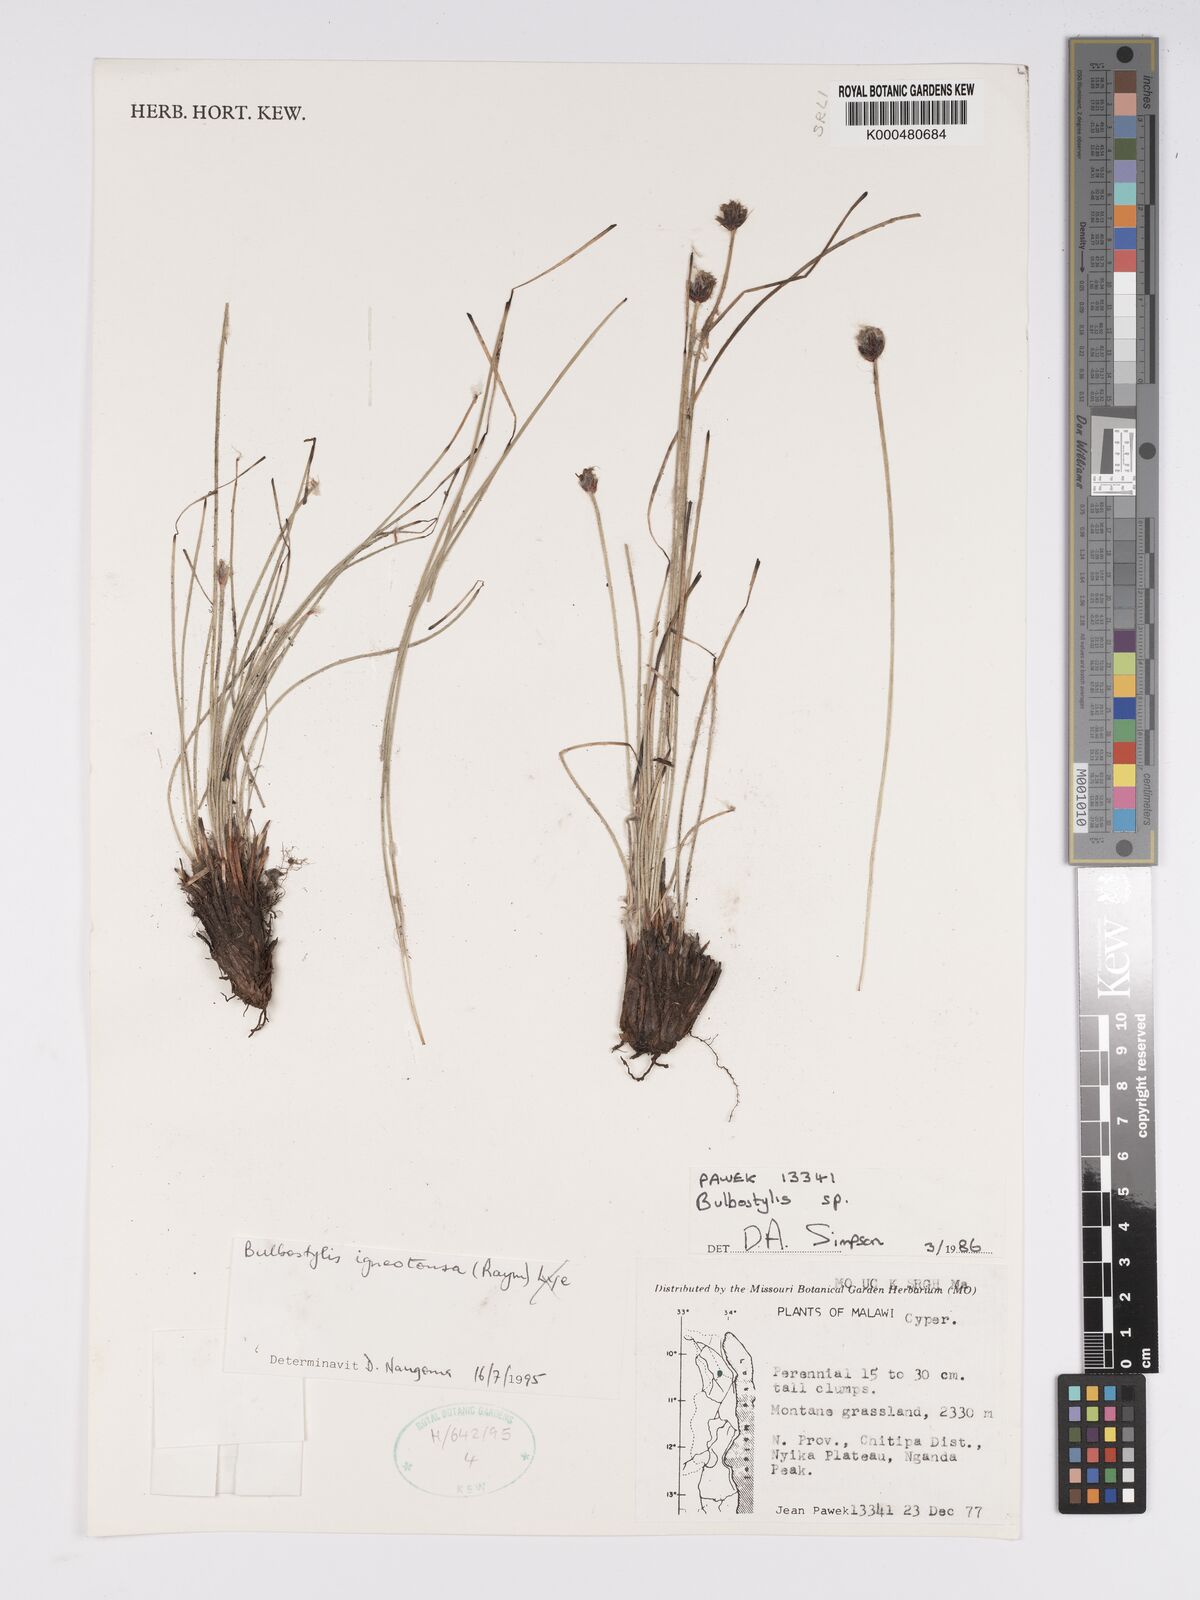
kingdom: Plantae
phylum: Tracheophyta
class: Liliopsida
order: Poales
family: Cyperaceae
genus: Bulbostylis
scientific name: Bulbostylis igneotonsa
